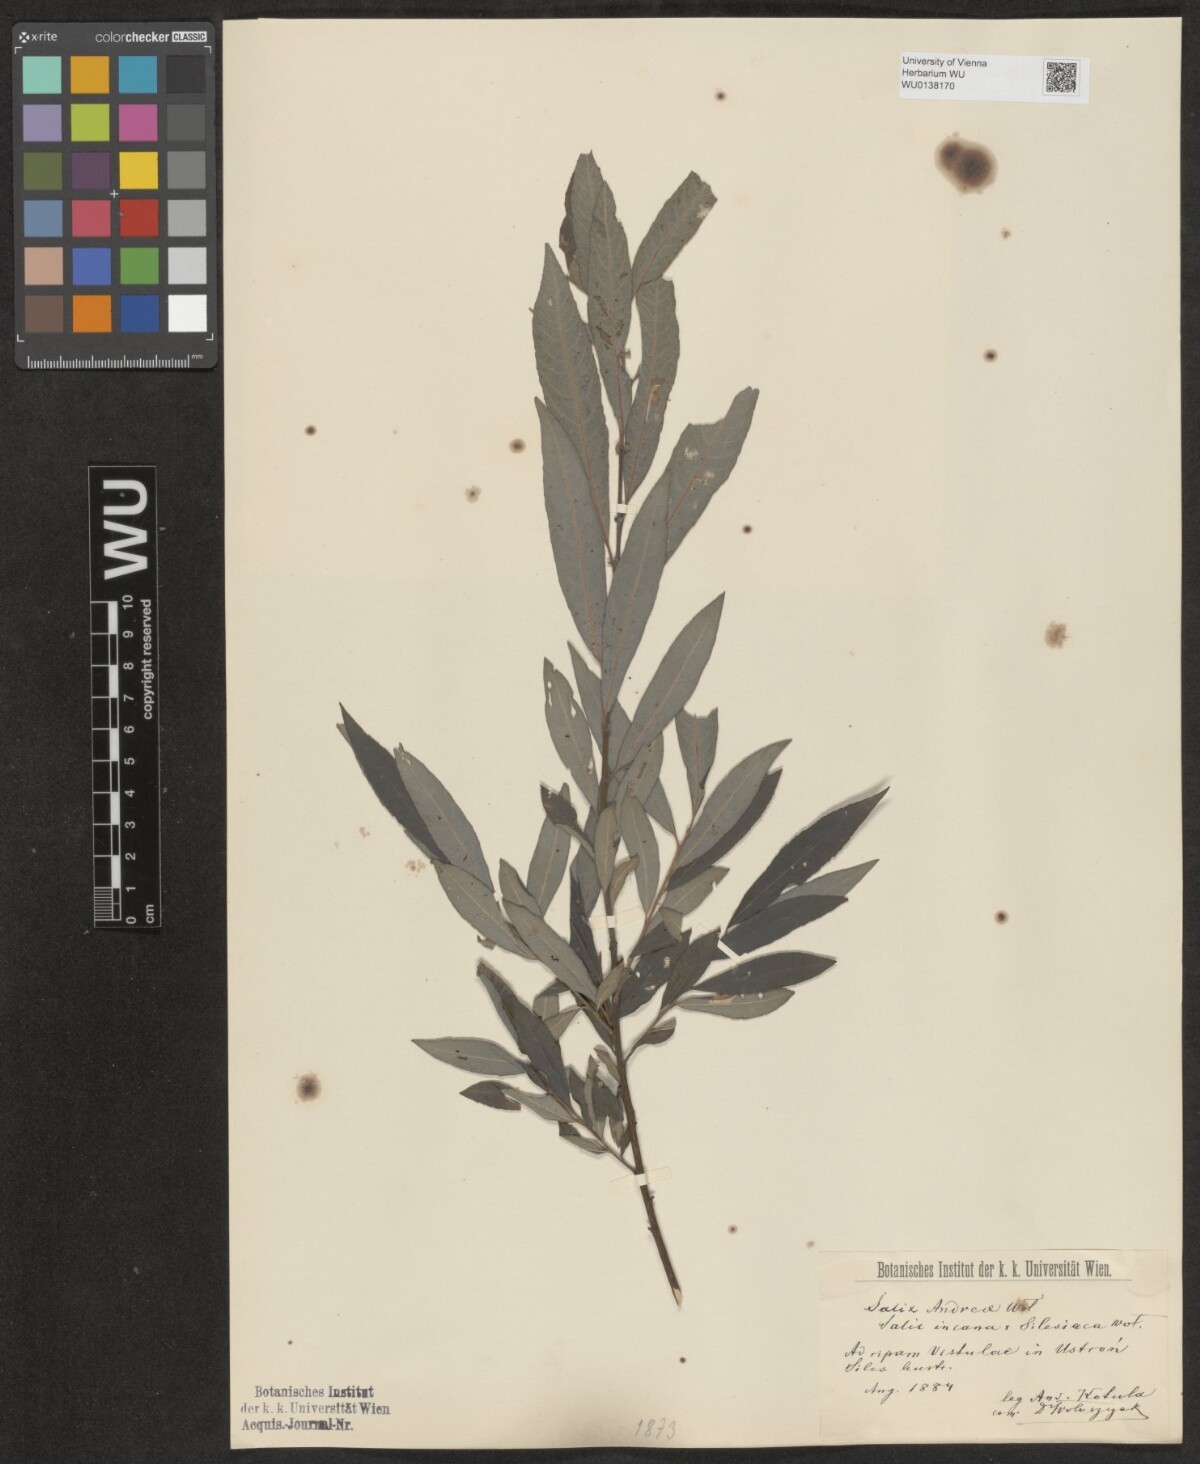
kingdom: Plantae
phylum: Tracheophyta
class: Magnoliopsida
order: Malpighiales
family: Salicaceae
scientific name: Salicaceae
